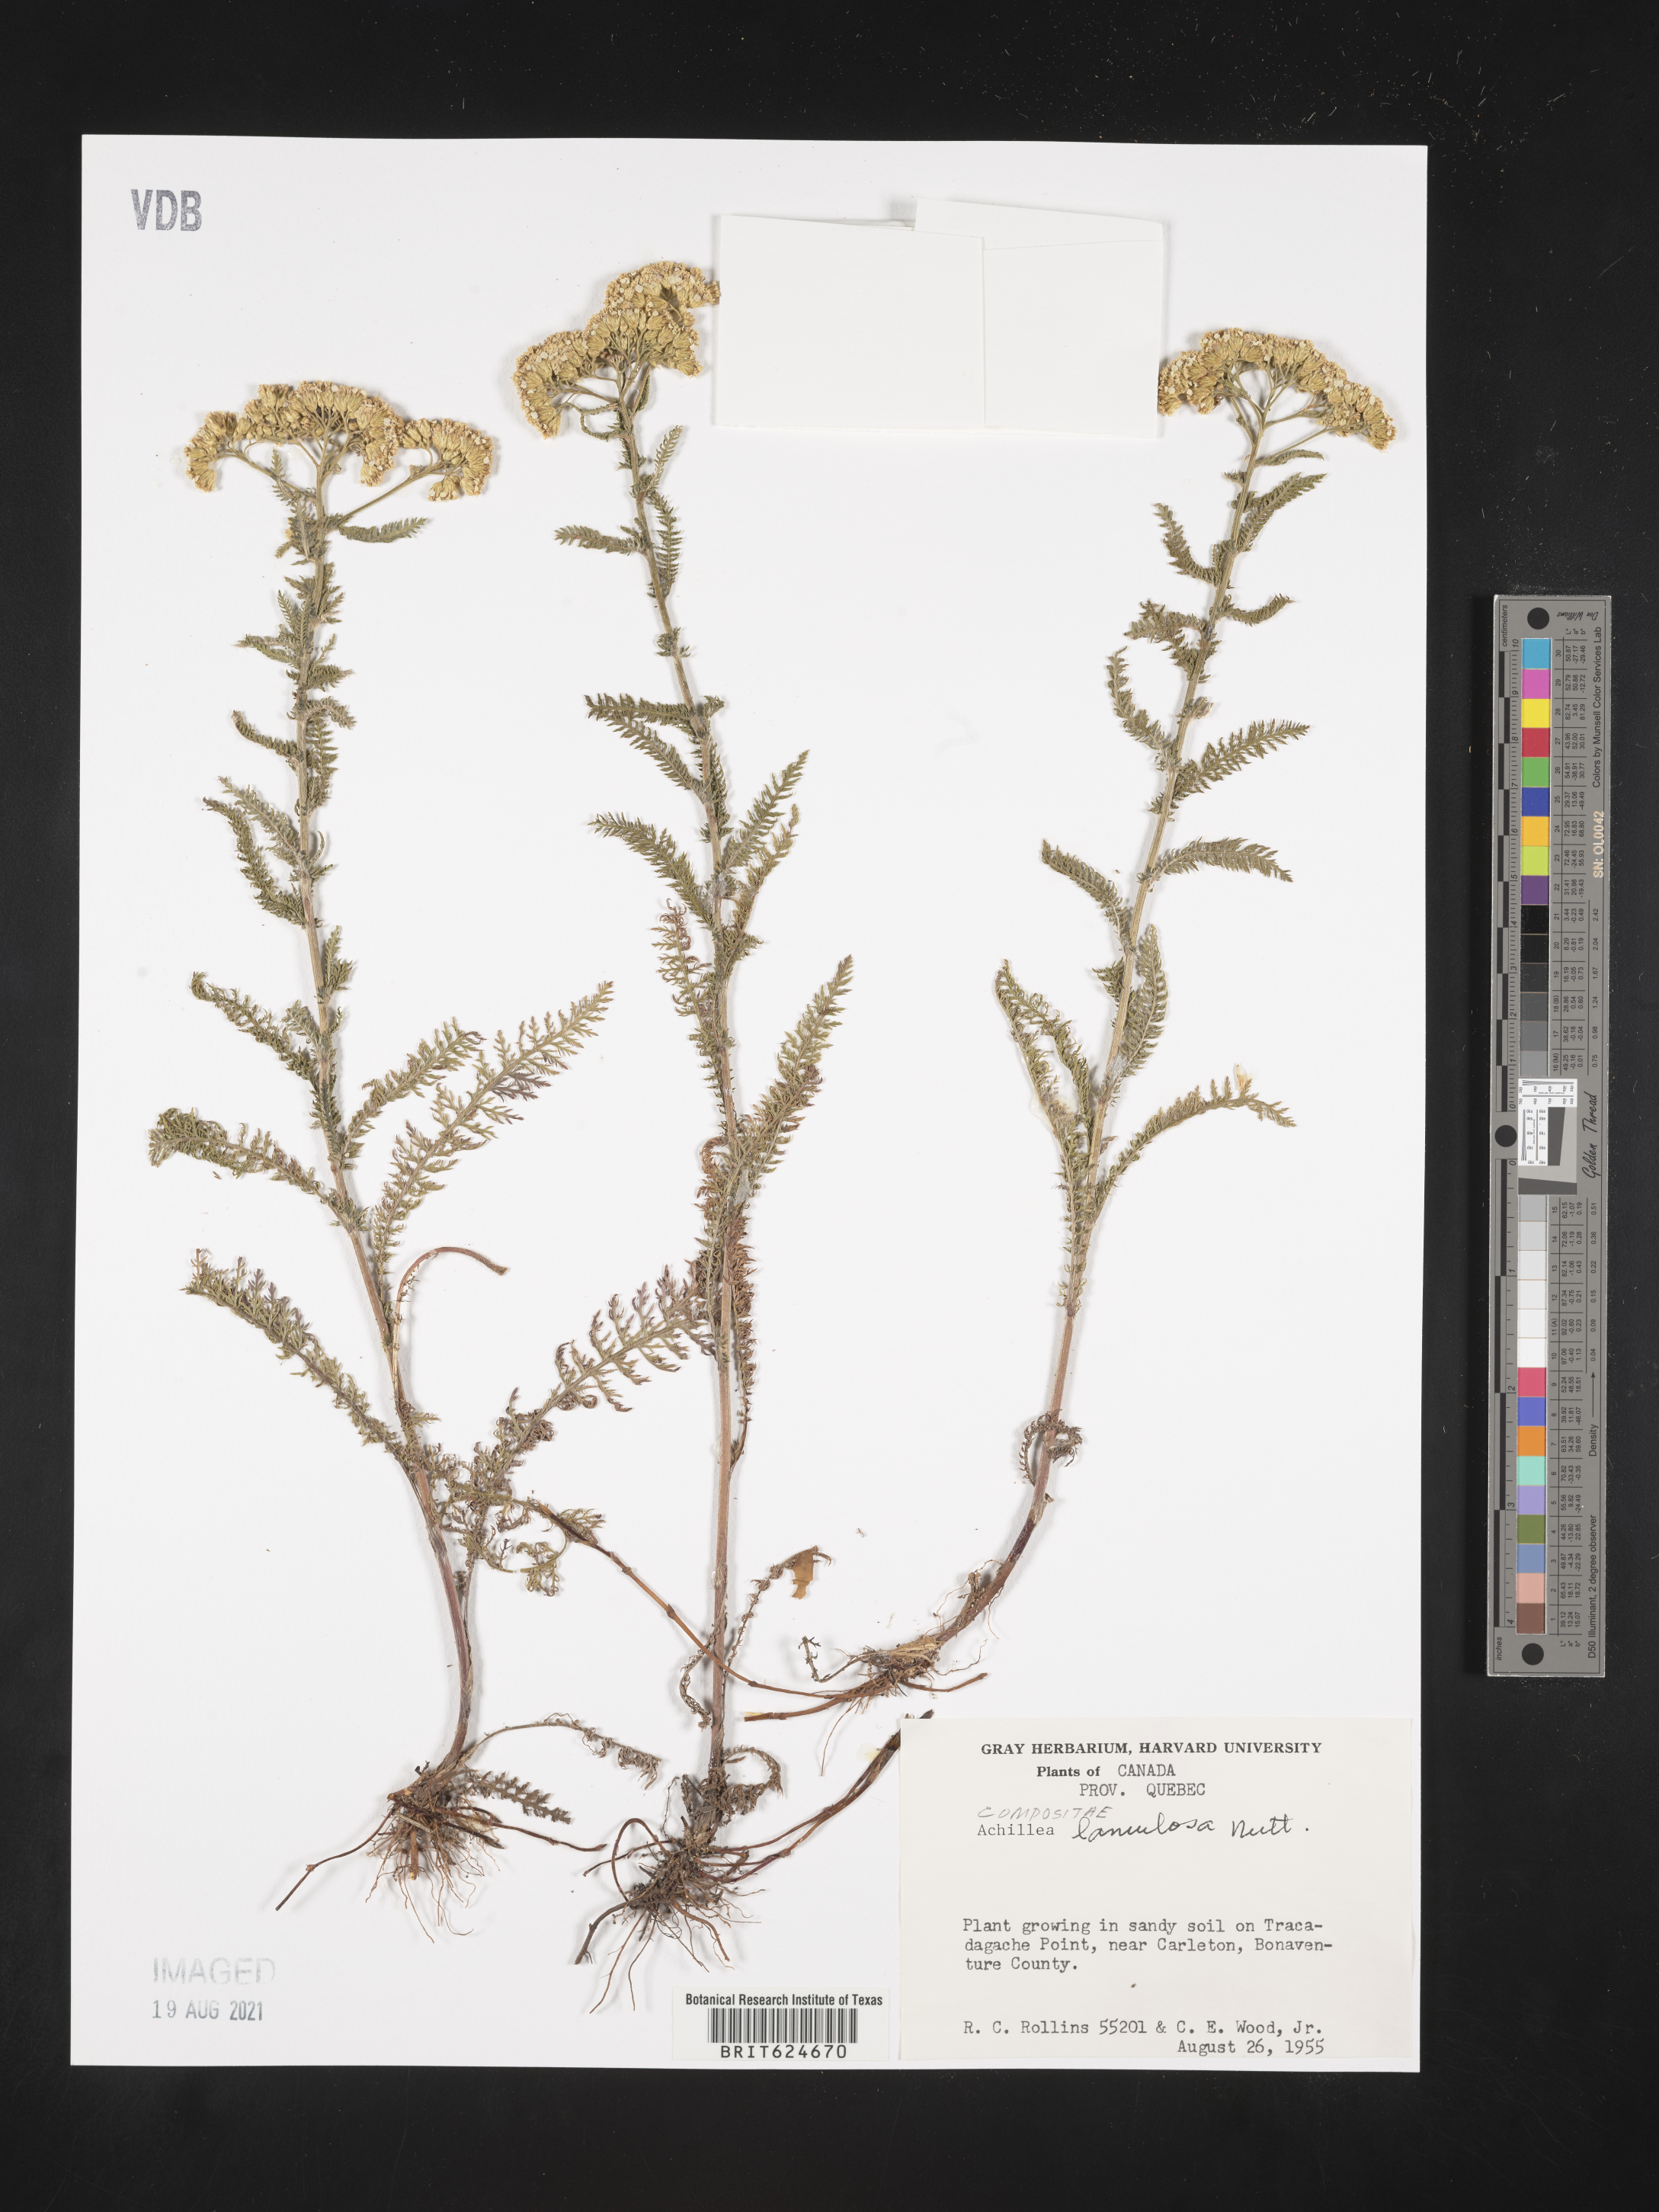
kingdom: Plantae
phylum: Tracheophyta
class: Magnoliopsida
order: Asterales
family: Asteraceae
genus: Achillea
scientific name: Achillea millefolium
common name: Yarrow
